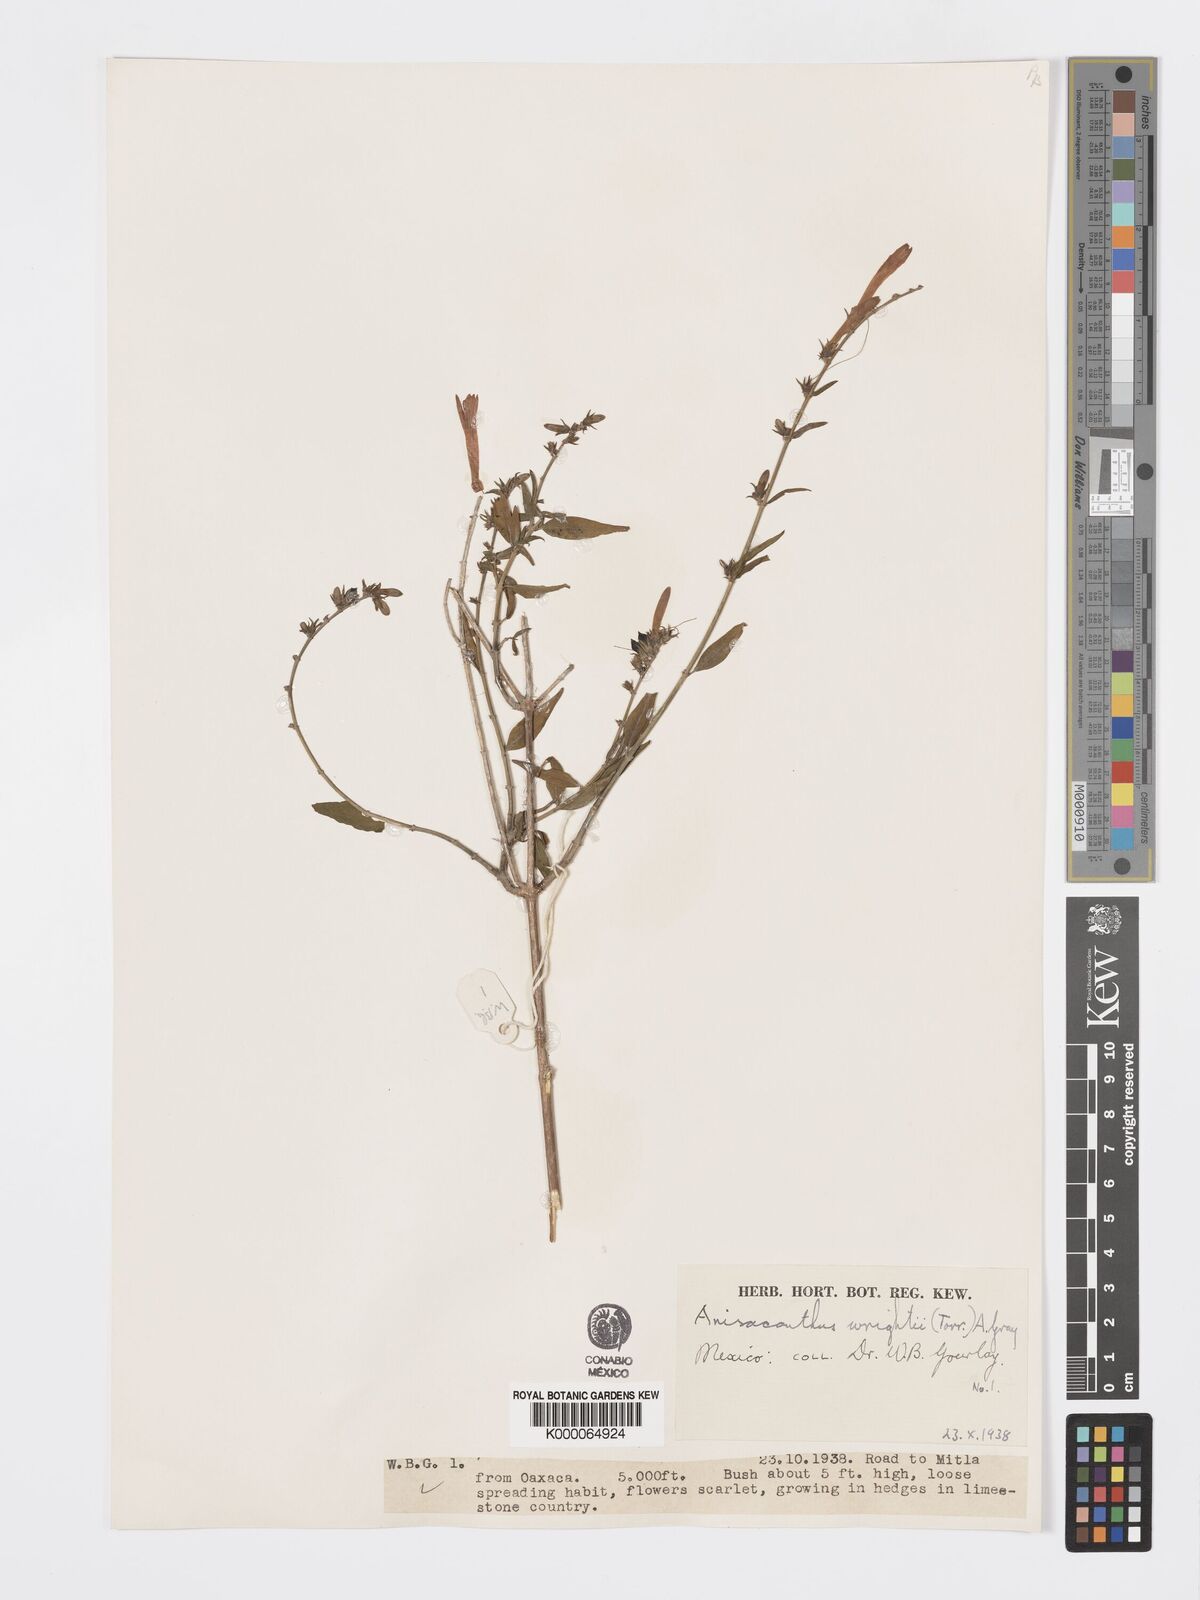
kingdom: Plantae
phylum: Tracheophyta
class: Magnoliopsida
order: Lamiales
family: Acanthaceae
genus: Anisacanthus
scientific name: Anisacanthus quadrifidus
